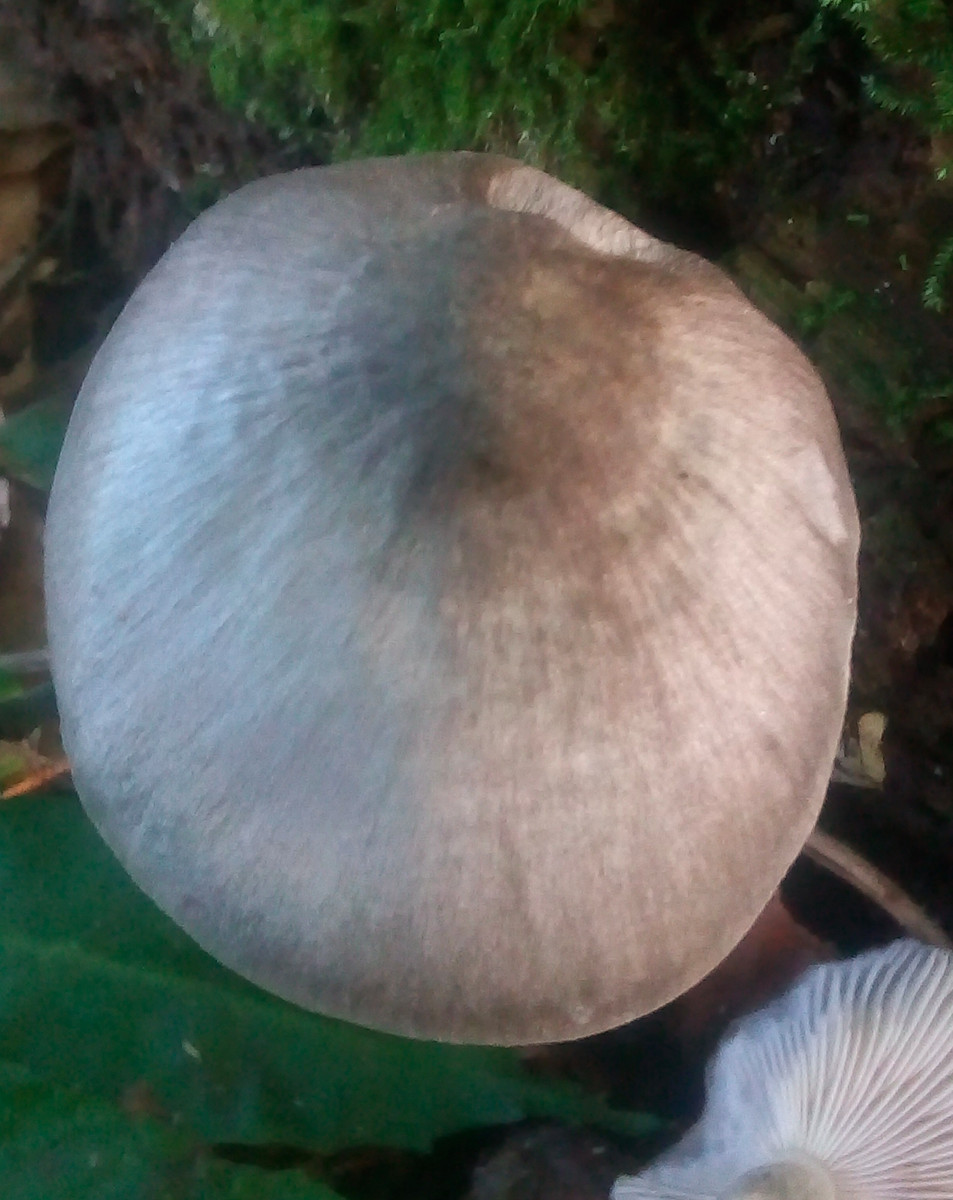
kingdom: Fungi
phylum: Basidiomycota
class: Agaricomycetes
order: Agaricales
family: Pluteaceae
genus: Pluteus
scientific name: Pluteus salicinus
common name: stiv skærmhat
